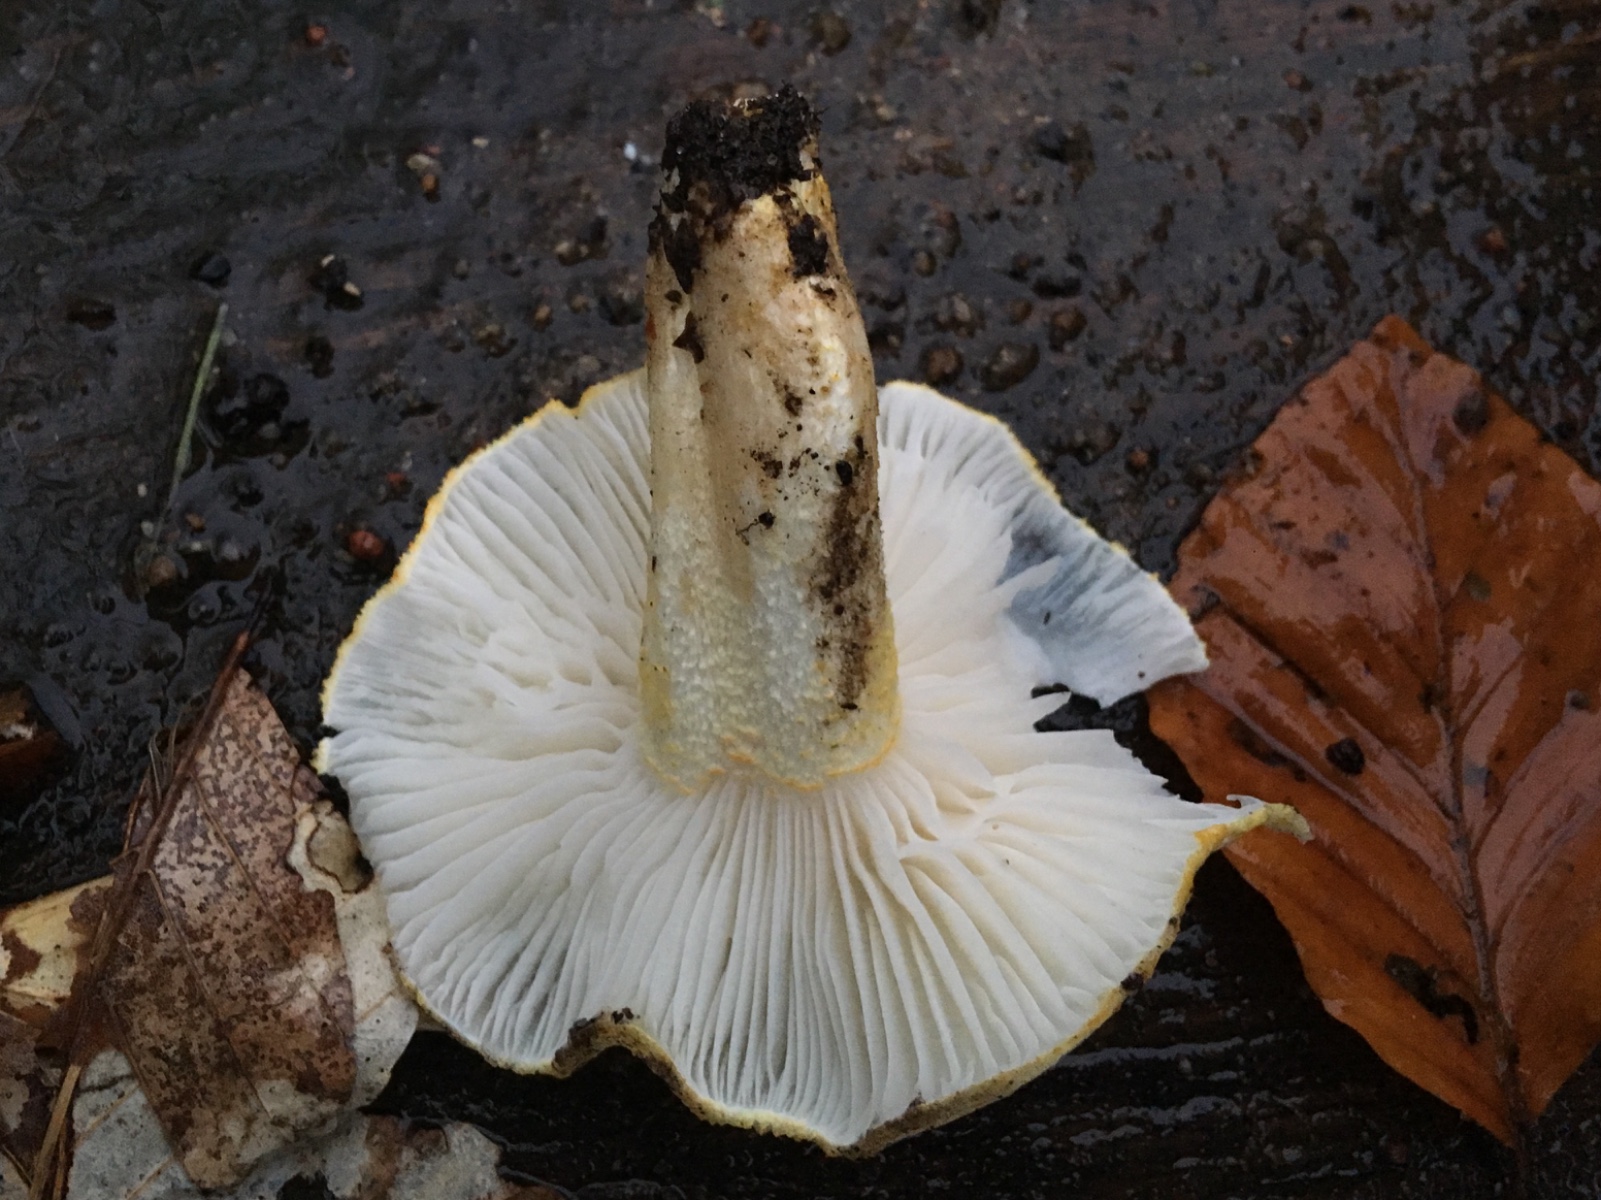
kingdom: Fungi
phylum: Basidiomycota
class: Agaricomycetes
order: Agaricales
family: Hygrophoraceae
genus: Hygrophorus
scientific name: Hygrophorus chrysodon
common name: gulfnugget sneglehat
